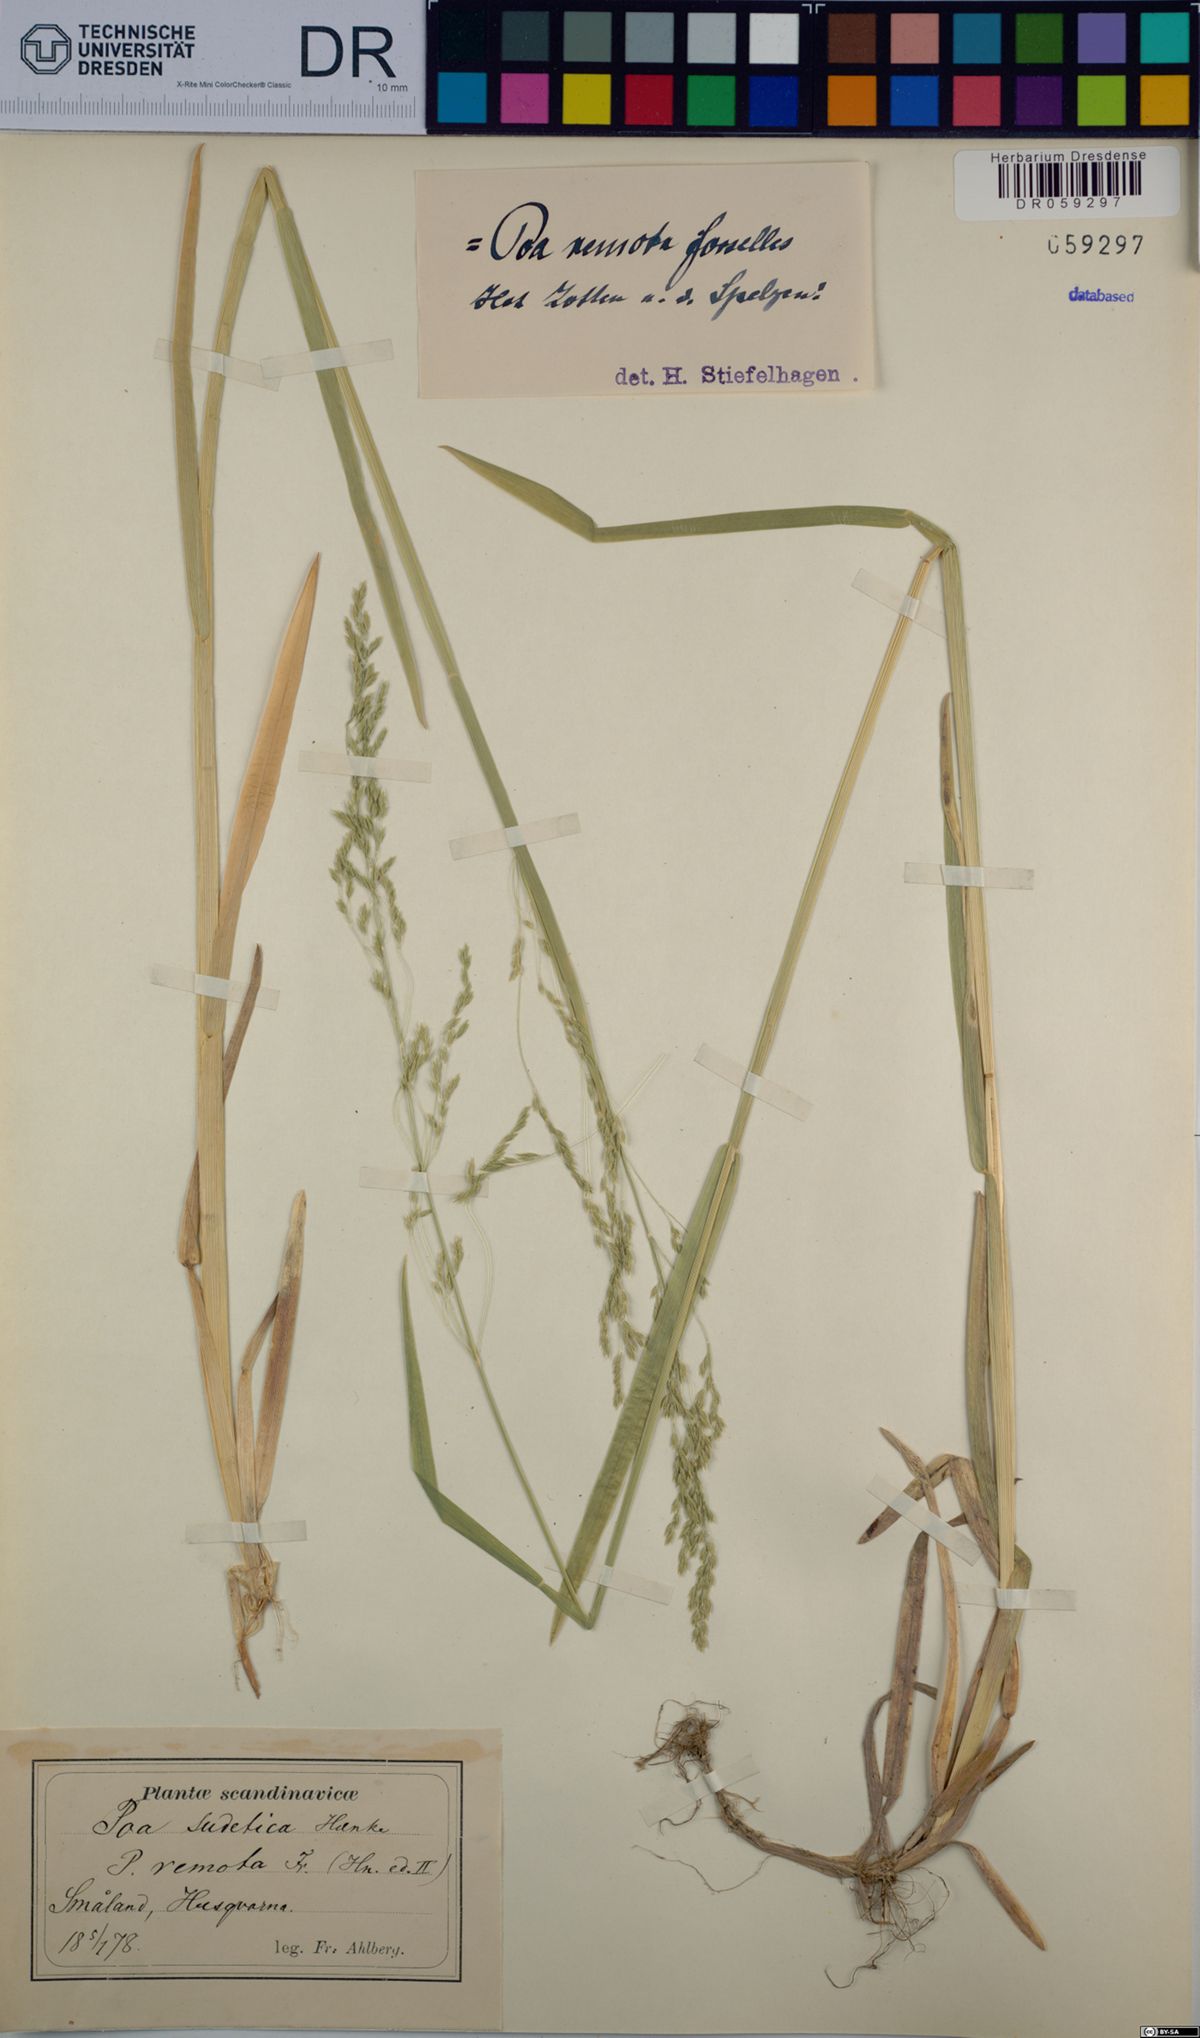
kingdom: Plantae
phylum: Tracheophyta
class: Liliopsida
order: Poales
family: Poaceae
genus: Poa
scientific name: Poa remota
